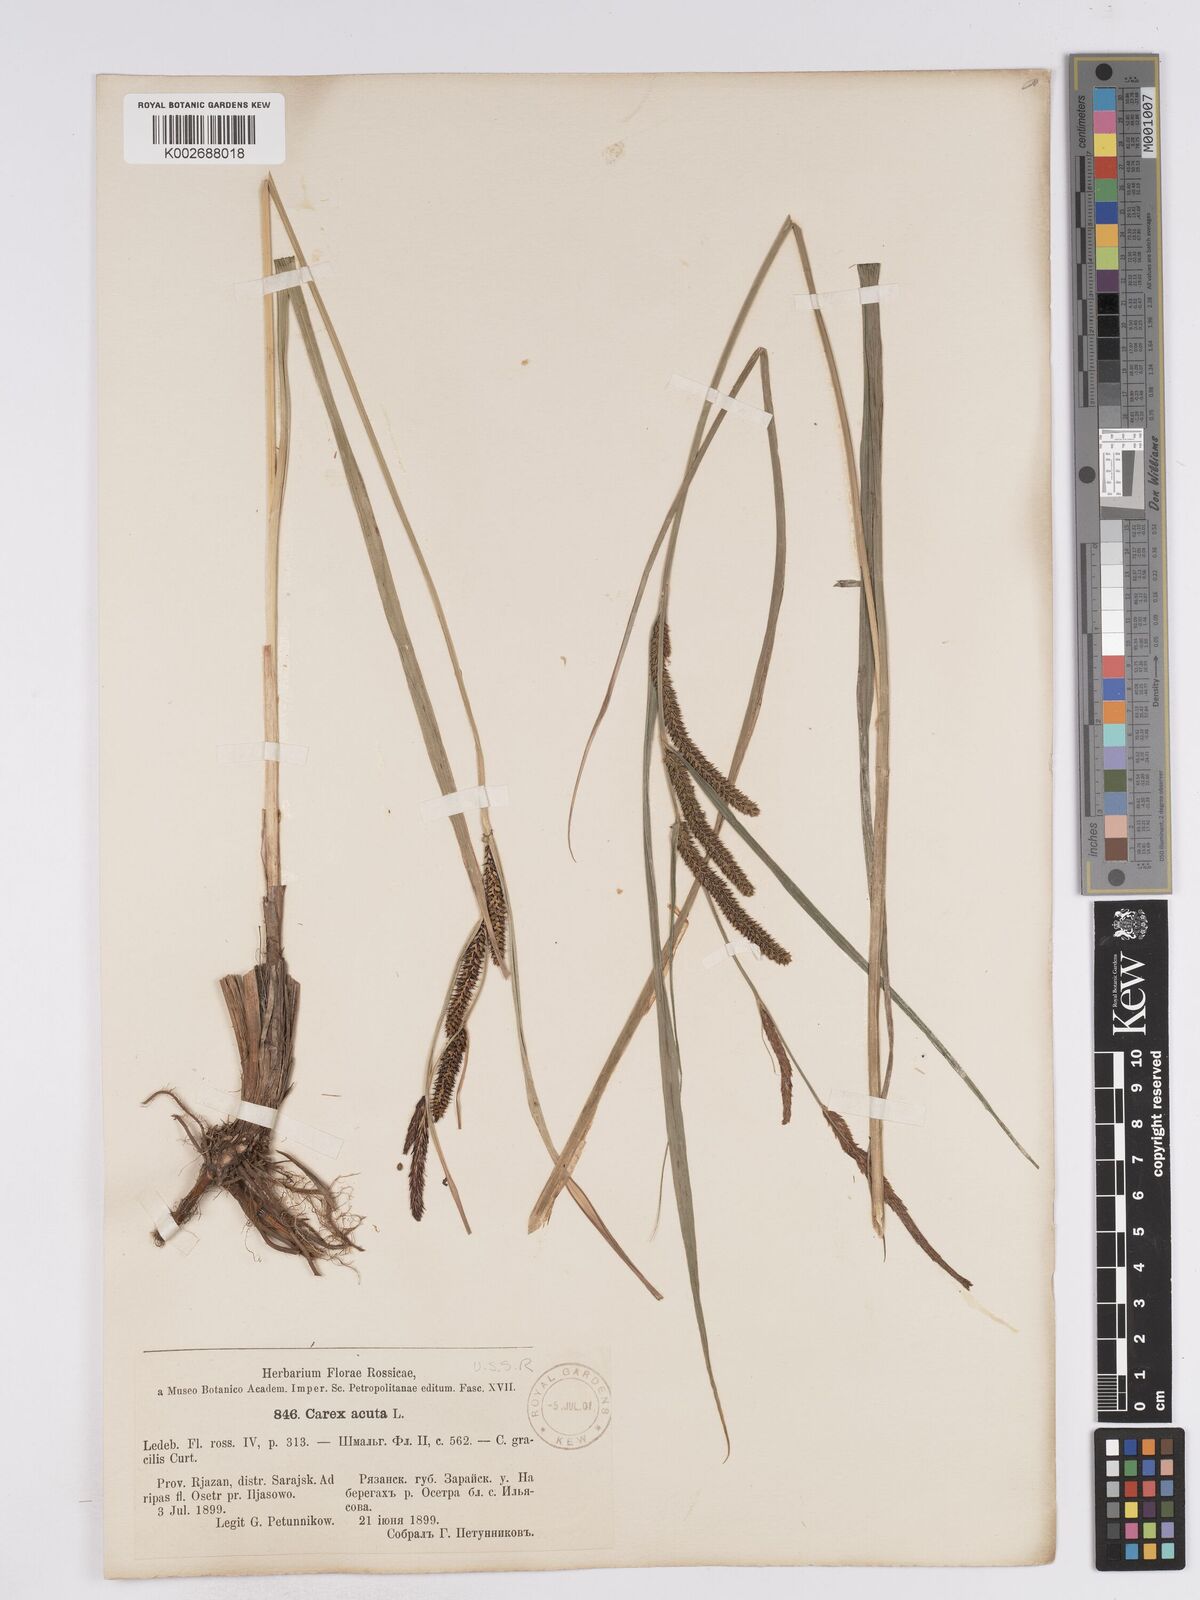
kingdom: Plantae
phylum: Tracheophyta
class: Liliopsida
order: Poales
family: Cyperaceae
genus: Carex
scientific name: Carex acuta
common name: Slender tufted-sedge
